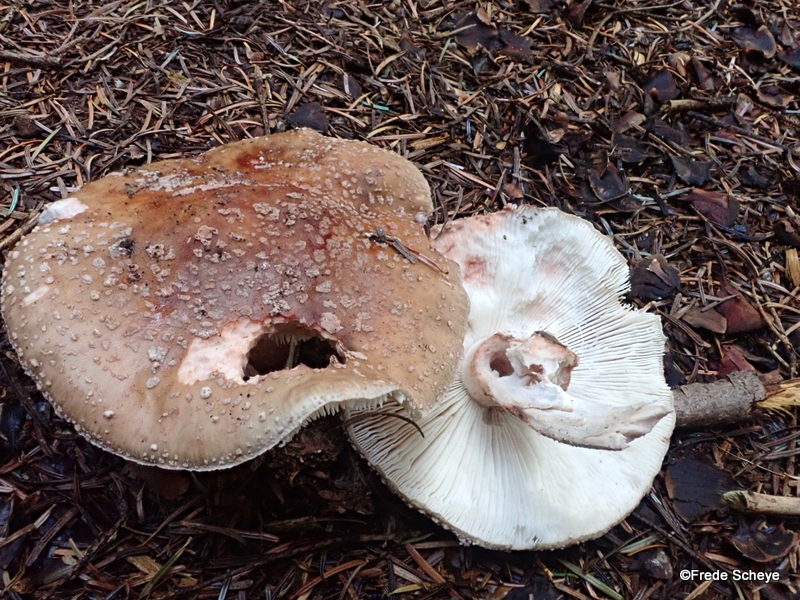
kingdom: Fungi
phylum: Basidiomycota
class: Agaricomycetes
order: Agaricales
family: Amanitaceae
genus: Amanita
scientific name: Amanita rubescens
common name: rødmende fluesvamp
